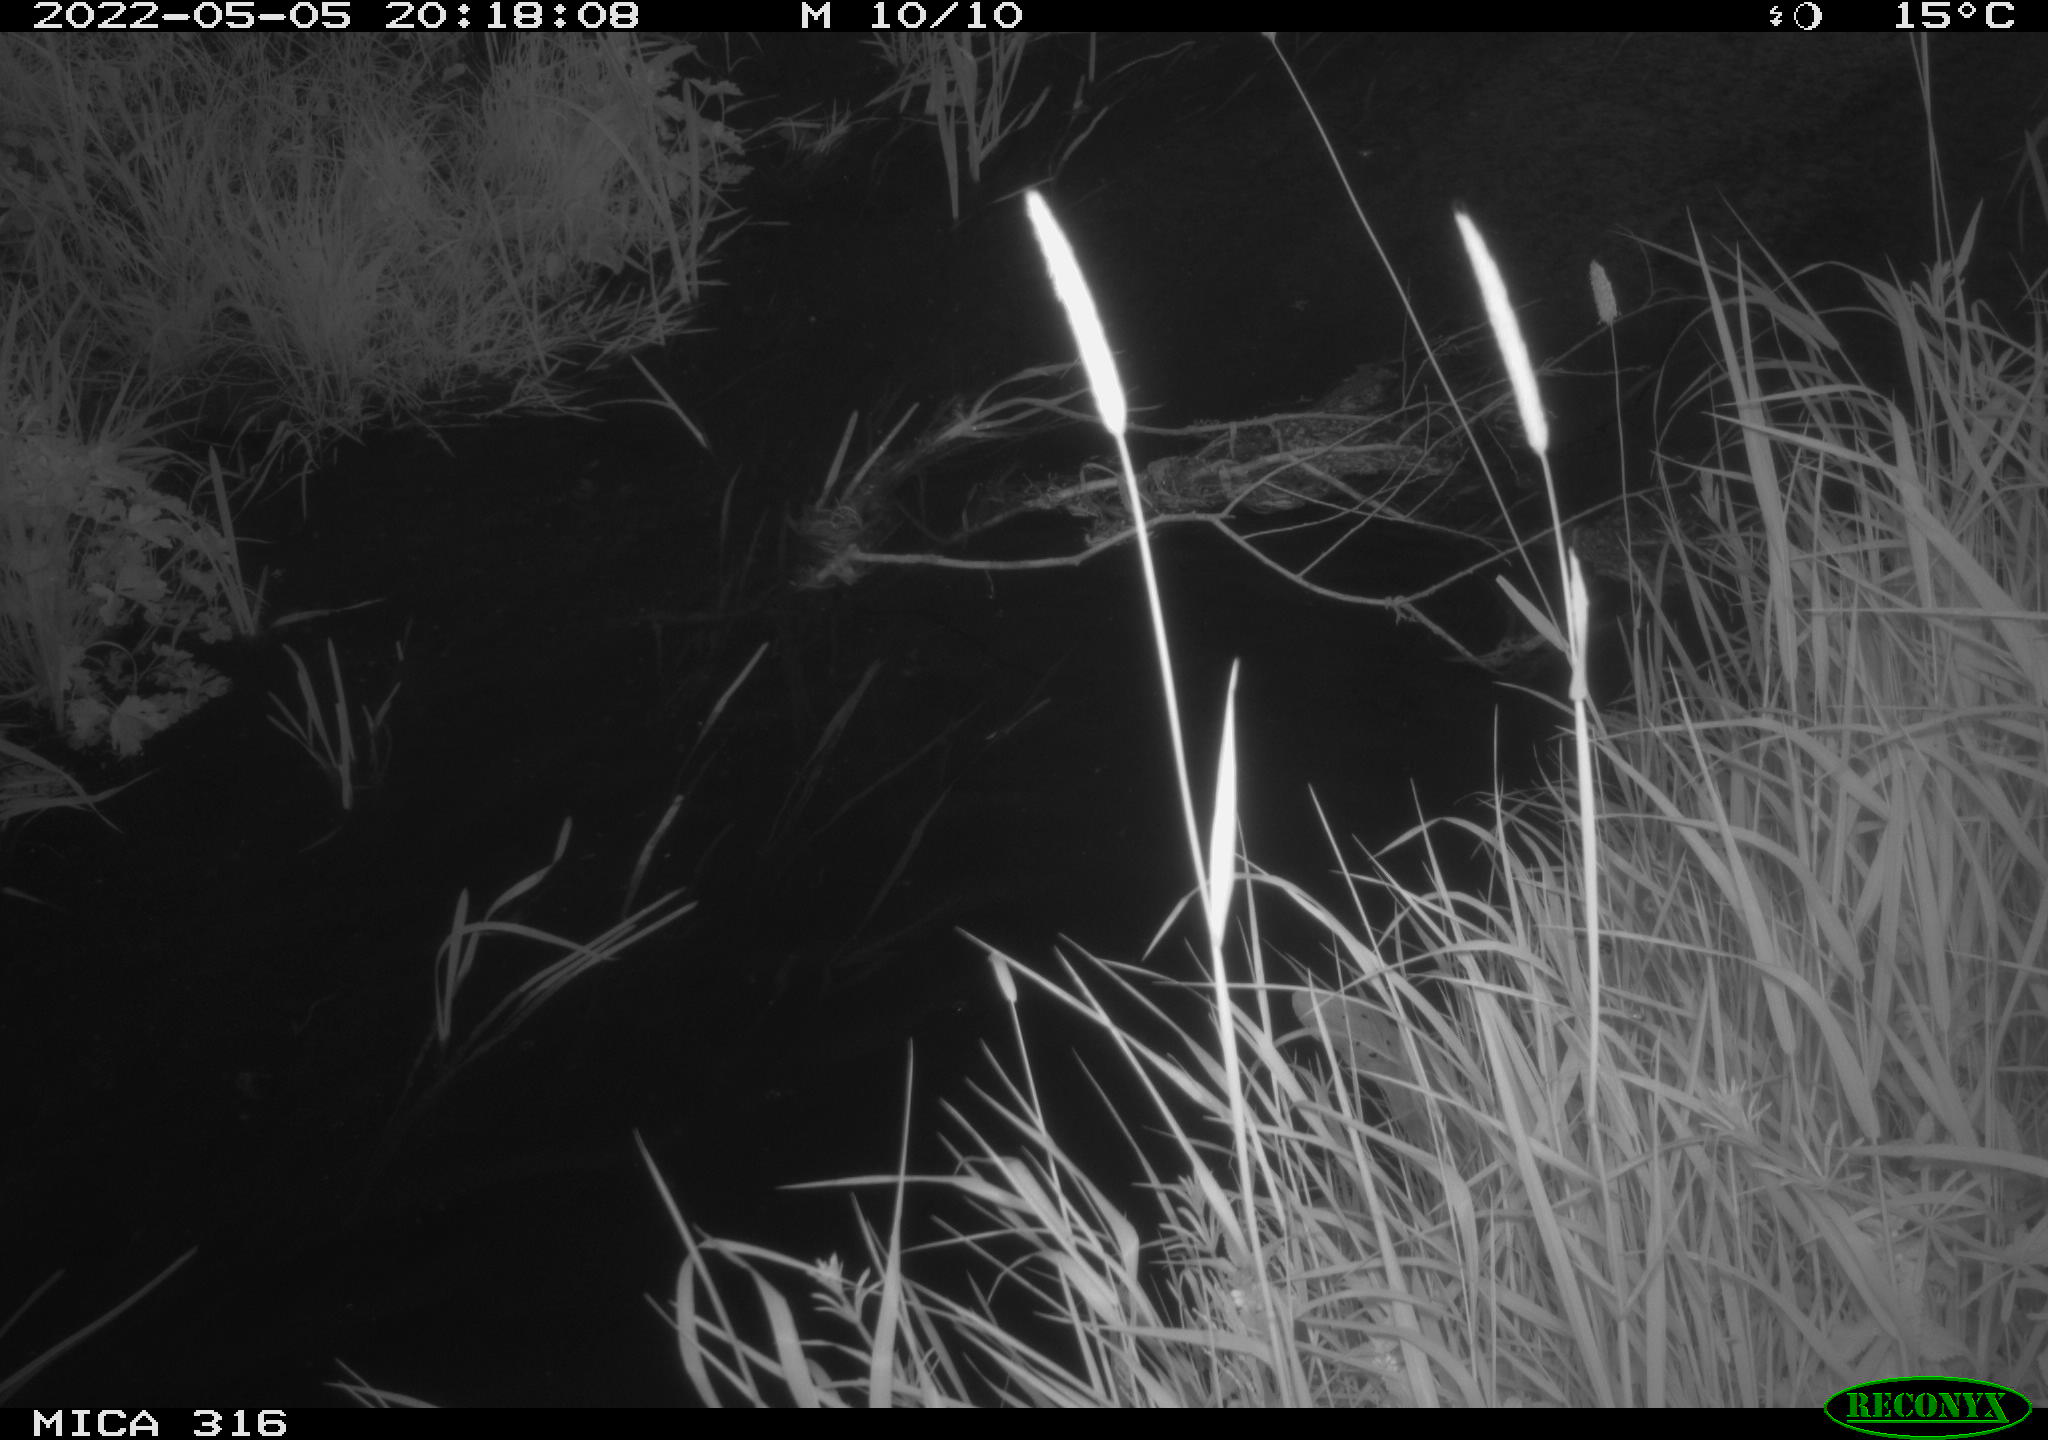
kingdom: Animalia
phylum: Chordata
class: Aves
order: Anseriformes
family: Anatidae
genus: Anas
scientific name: Anas platyrhynchos
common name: Mallard
